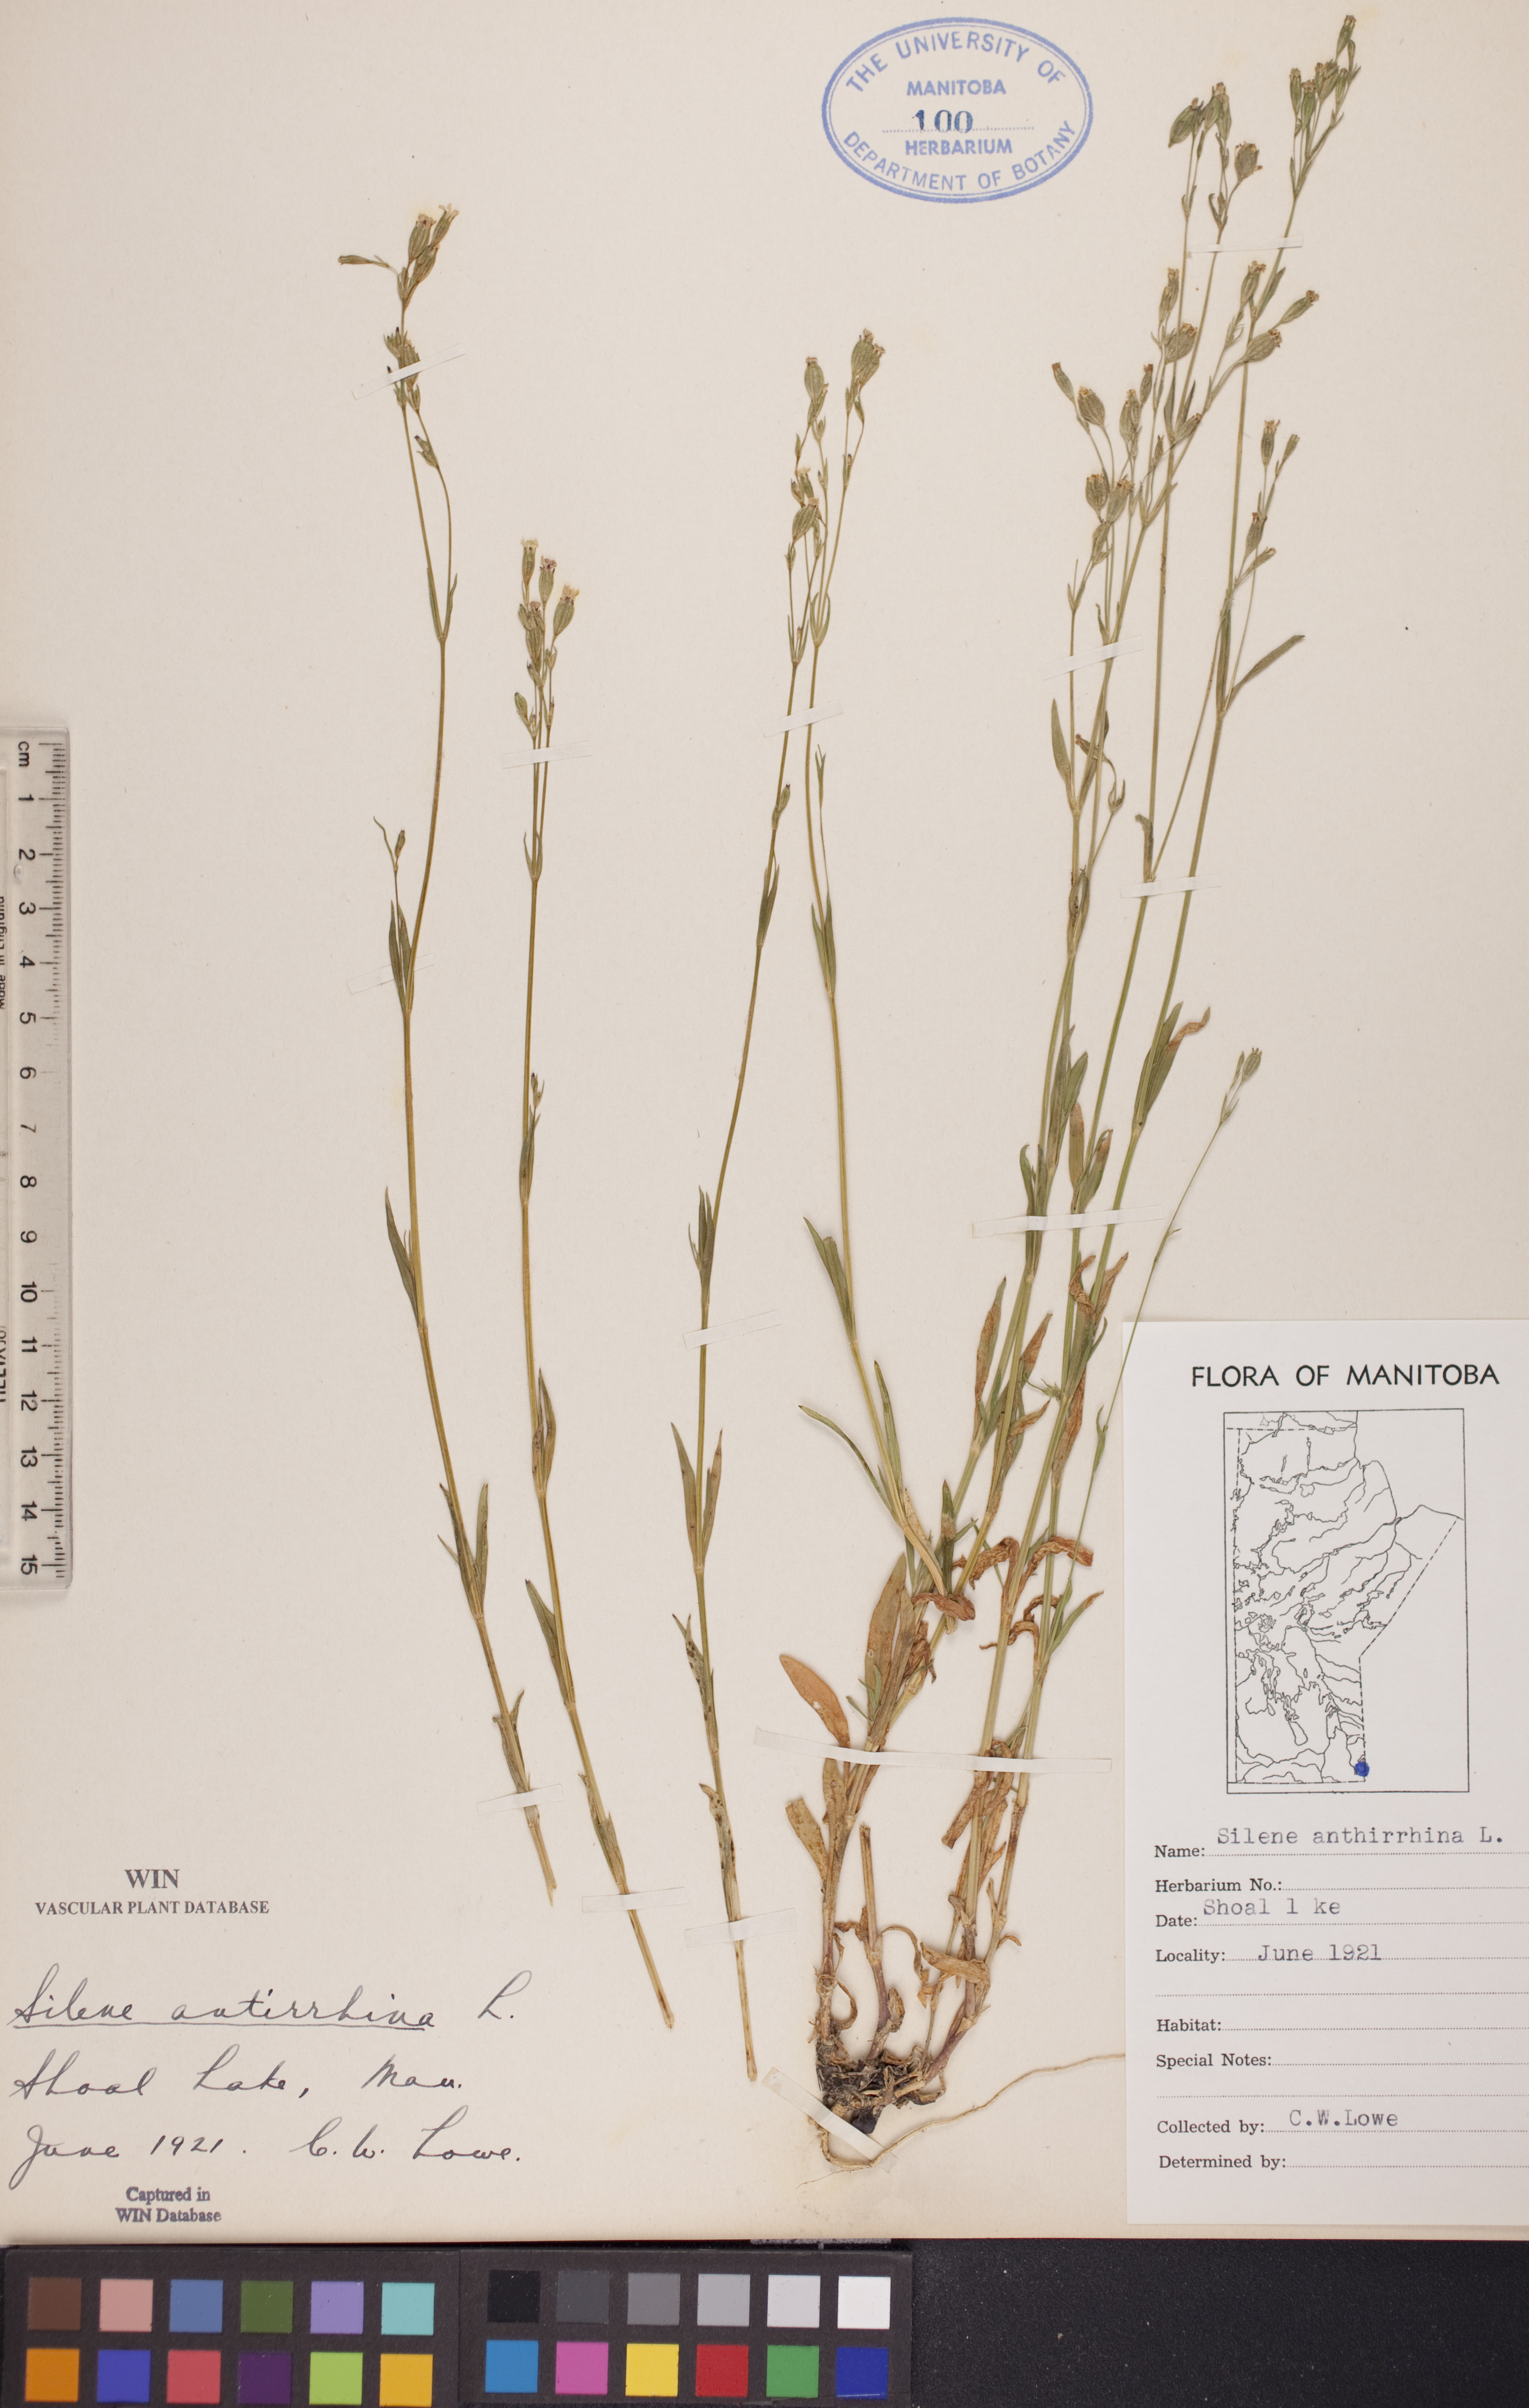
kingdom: Plantae
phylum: Tracheophyta
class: Magnoliopsida
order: Caryophyllales
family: Caryophyllaceae
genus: Silene
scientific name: Silene antirrhina
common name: Sleepy catchfly
